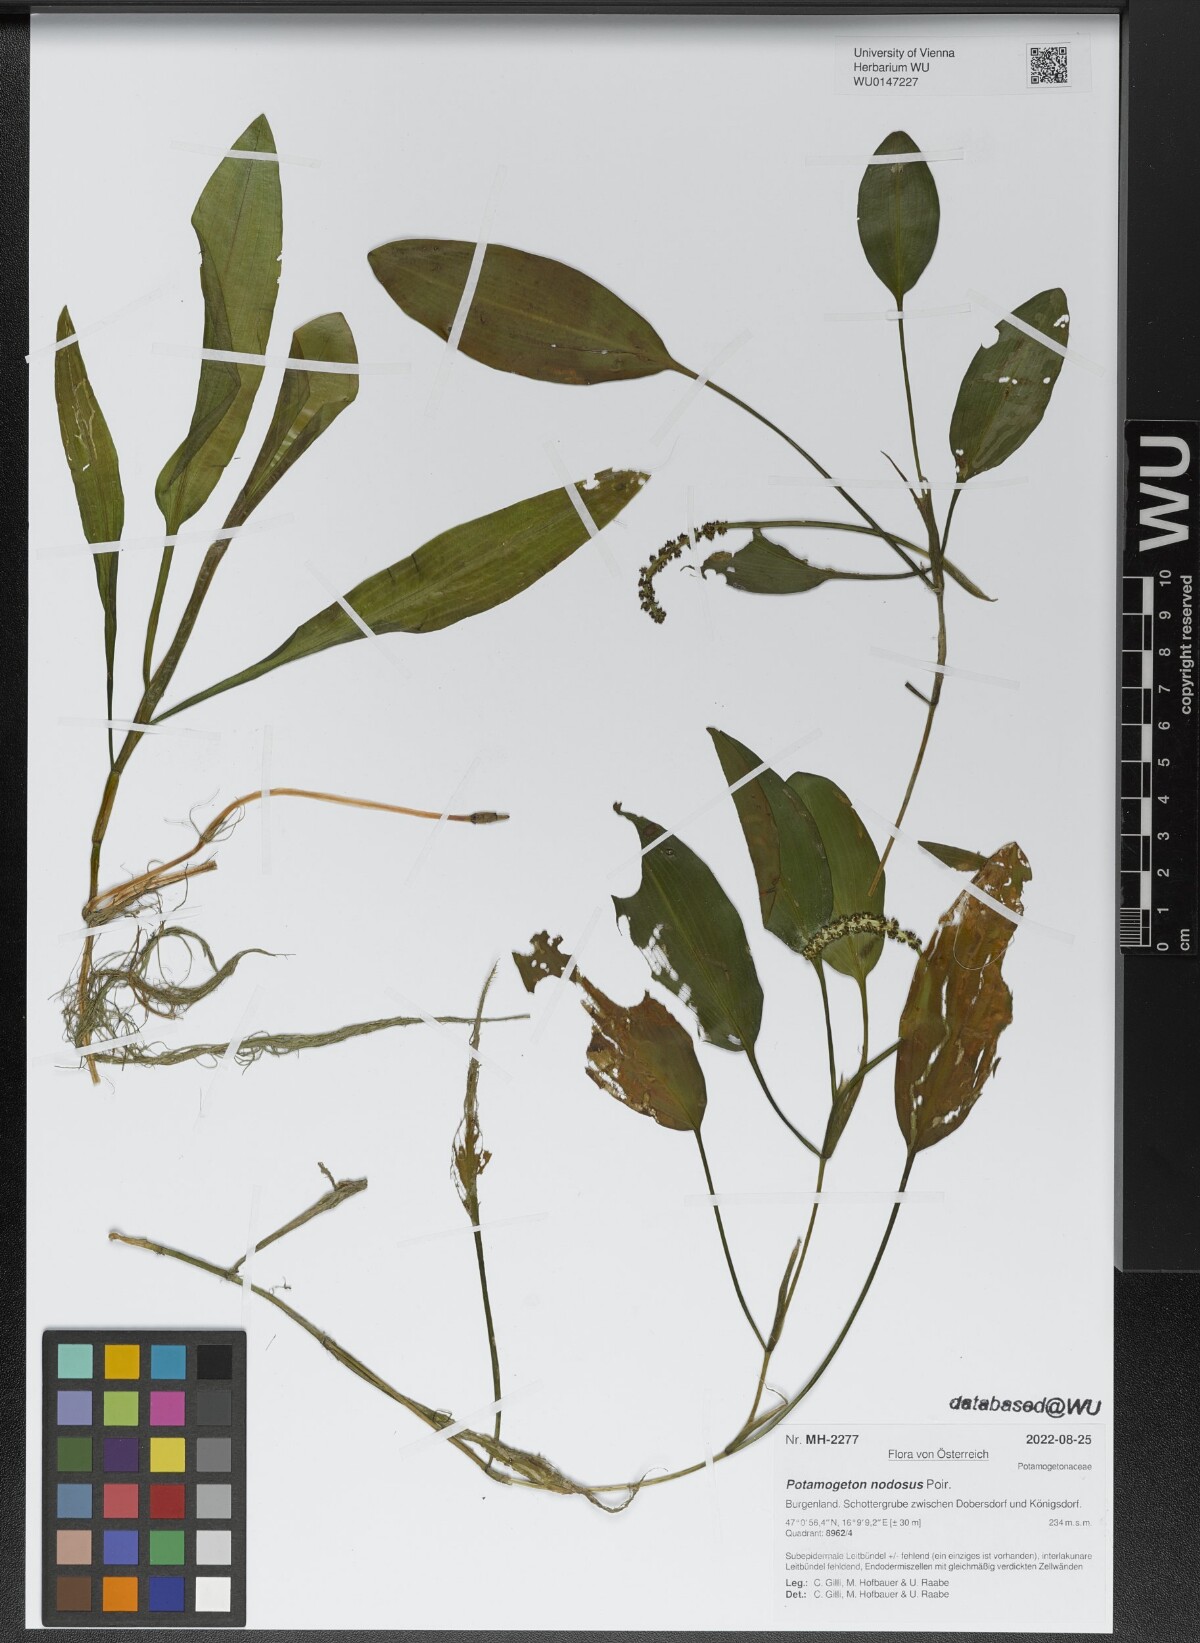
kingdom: Plantae
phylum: Tracheophyta
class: Liliopsida
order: Alismatales
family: Potamogetonaceae
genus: Potamogeton
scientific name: Potamogeton nodosus
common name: Loddon pondweed
